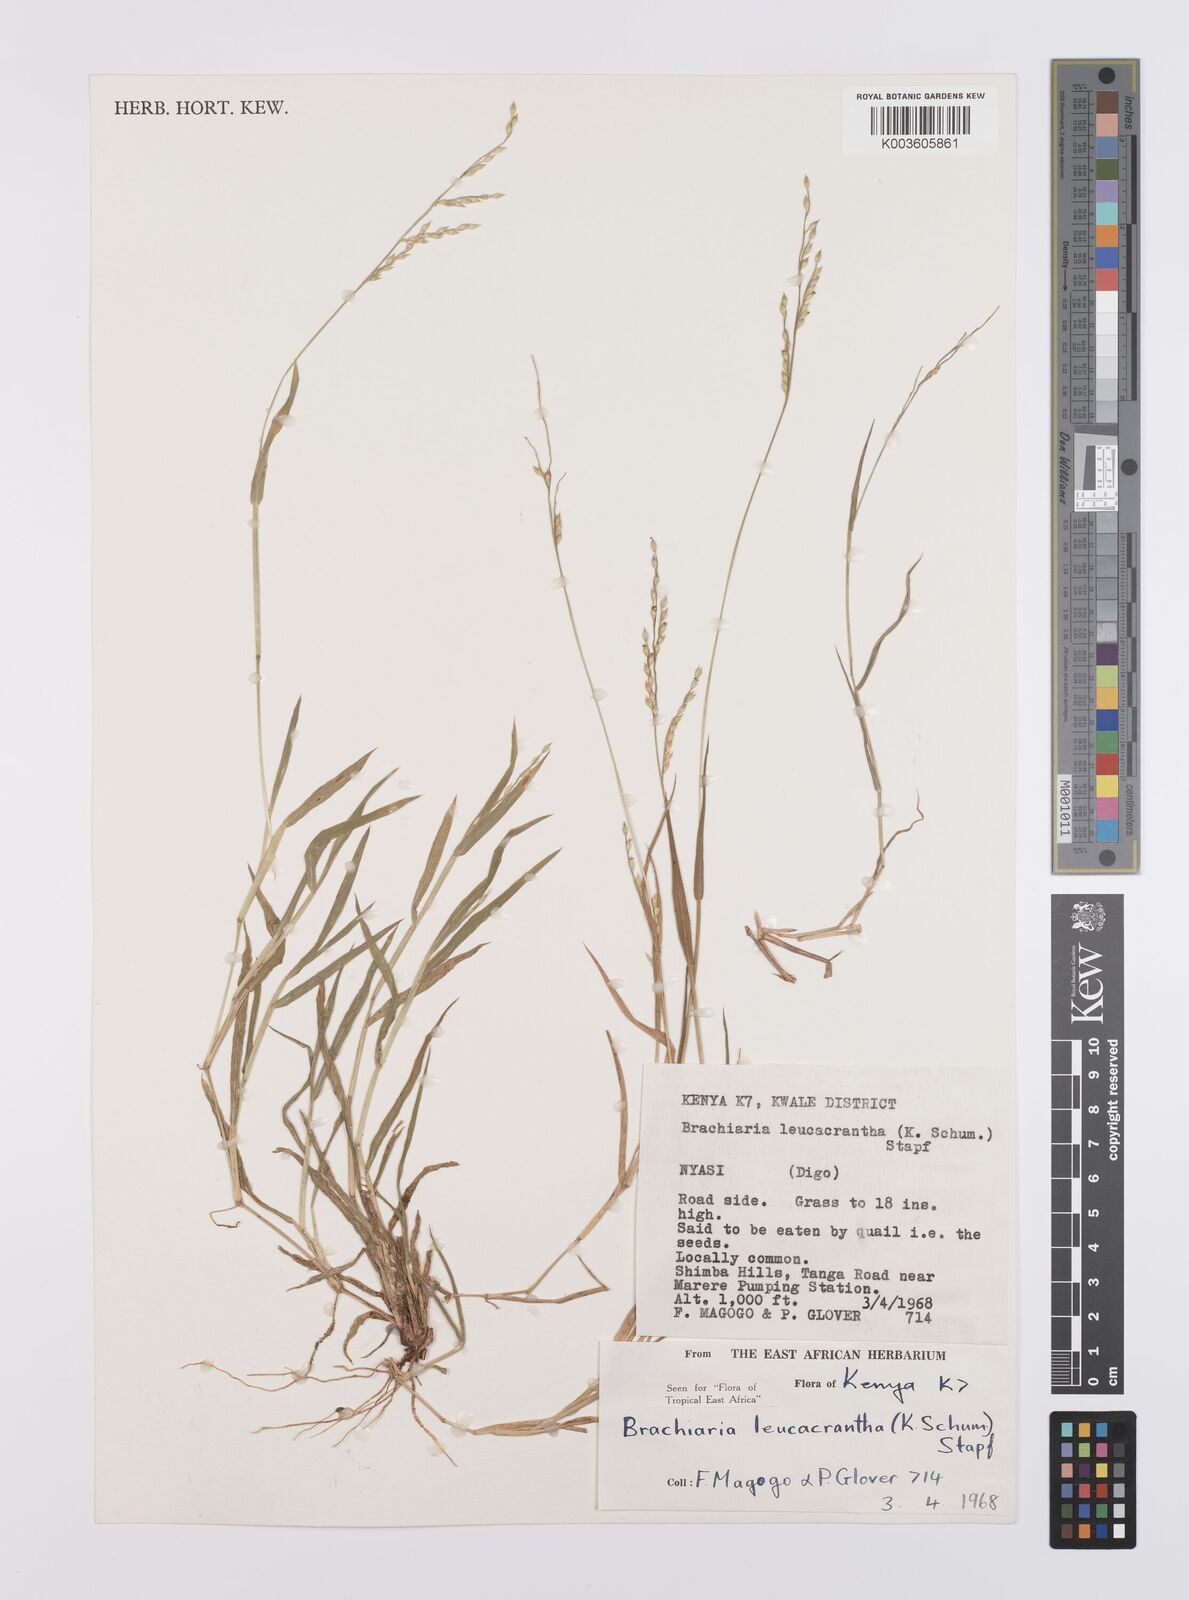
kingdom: Plantae
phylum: Tracheophyta
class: Liliopsida
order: Poales
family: Poaceae
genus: Urochloa
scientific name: Urochloa xantholeuca
